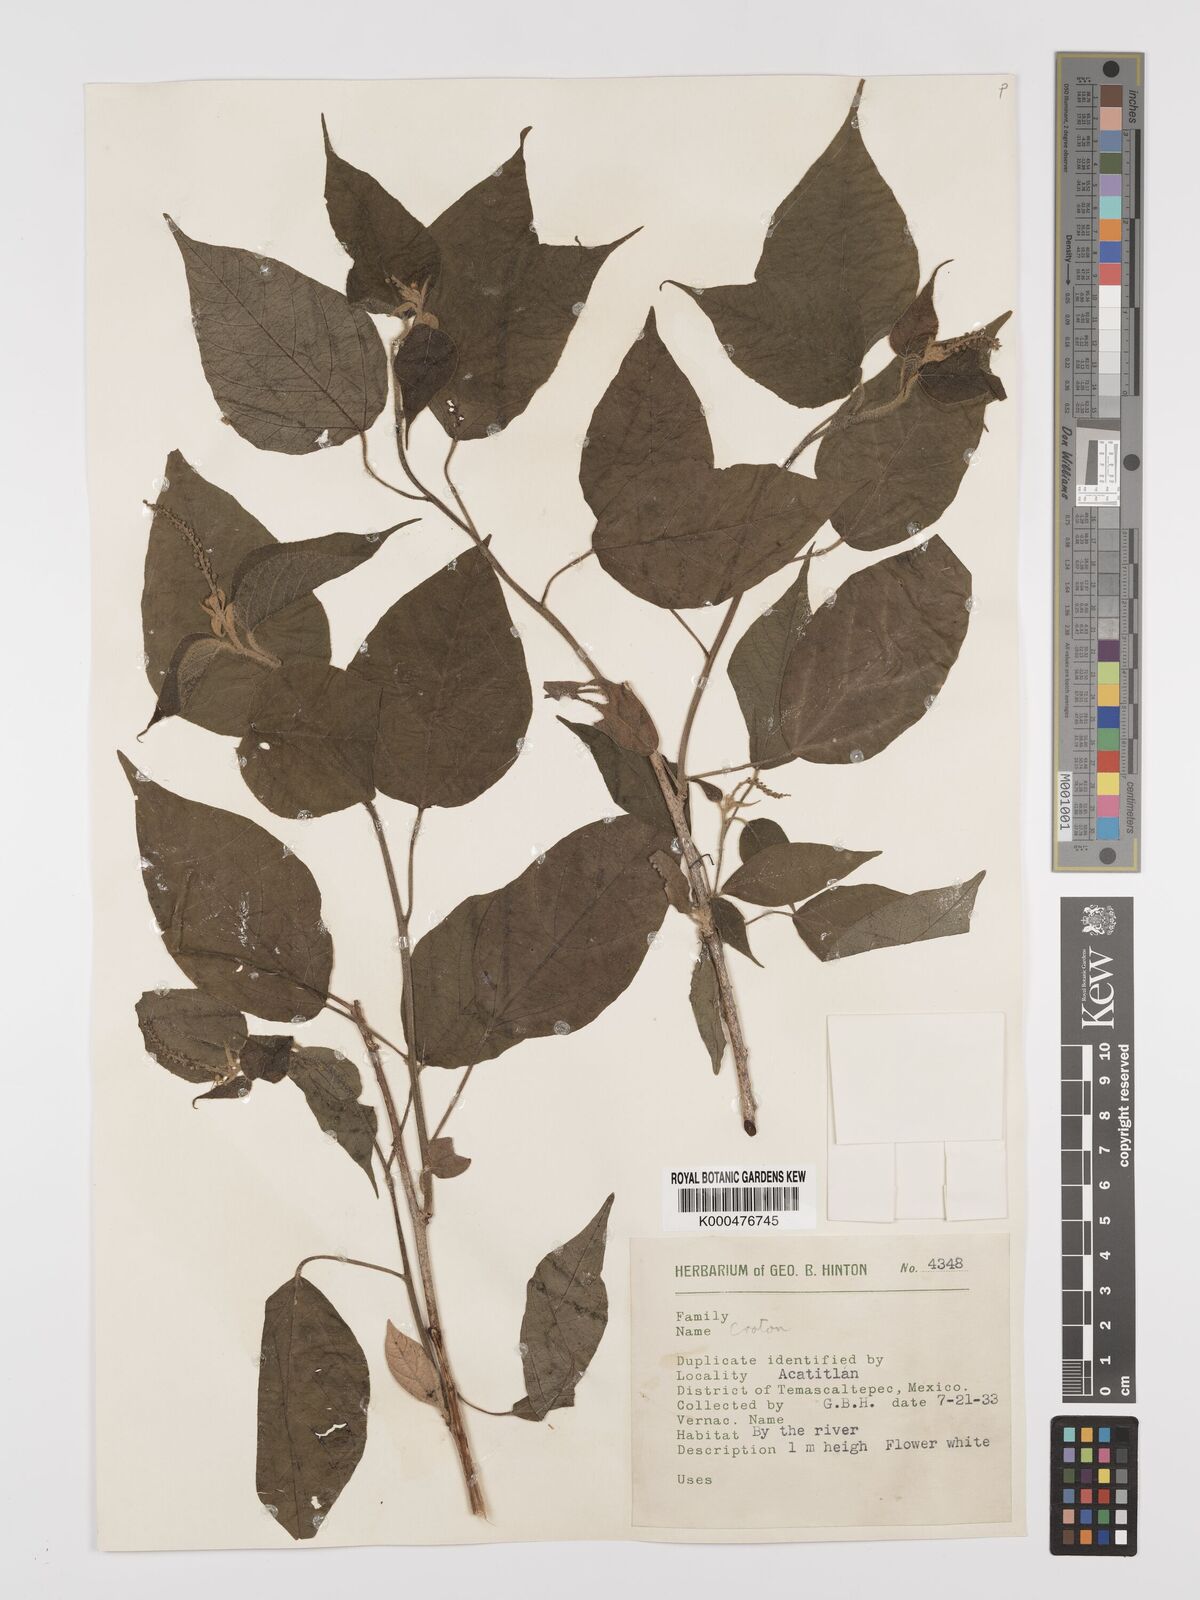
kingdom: Plantae
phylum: Tracheophyta
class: Magnoliopsida
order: Malpighiales
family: Euphorbiaceae
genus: Croton
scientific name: Croton
